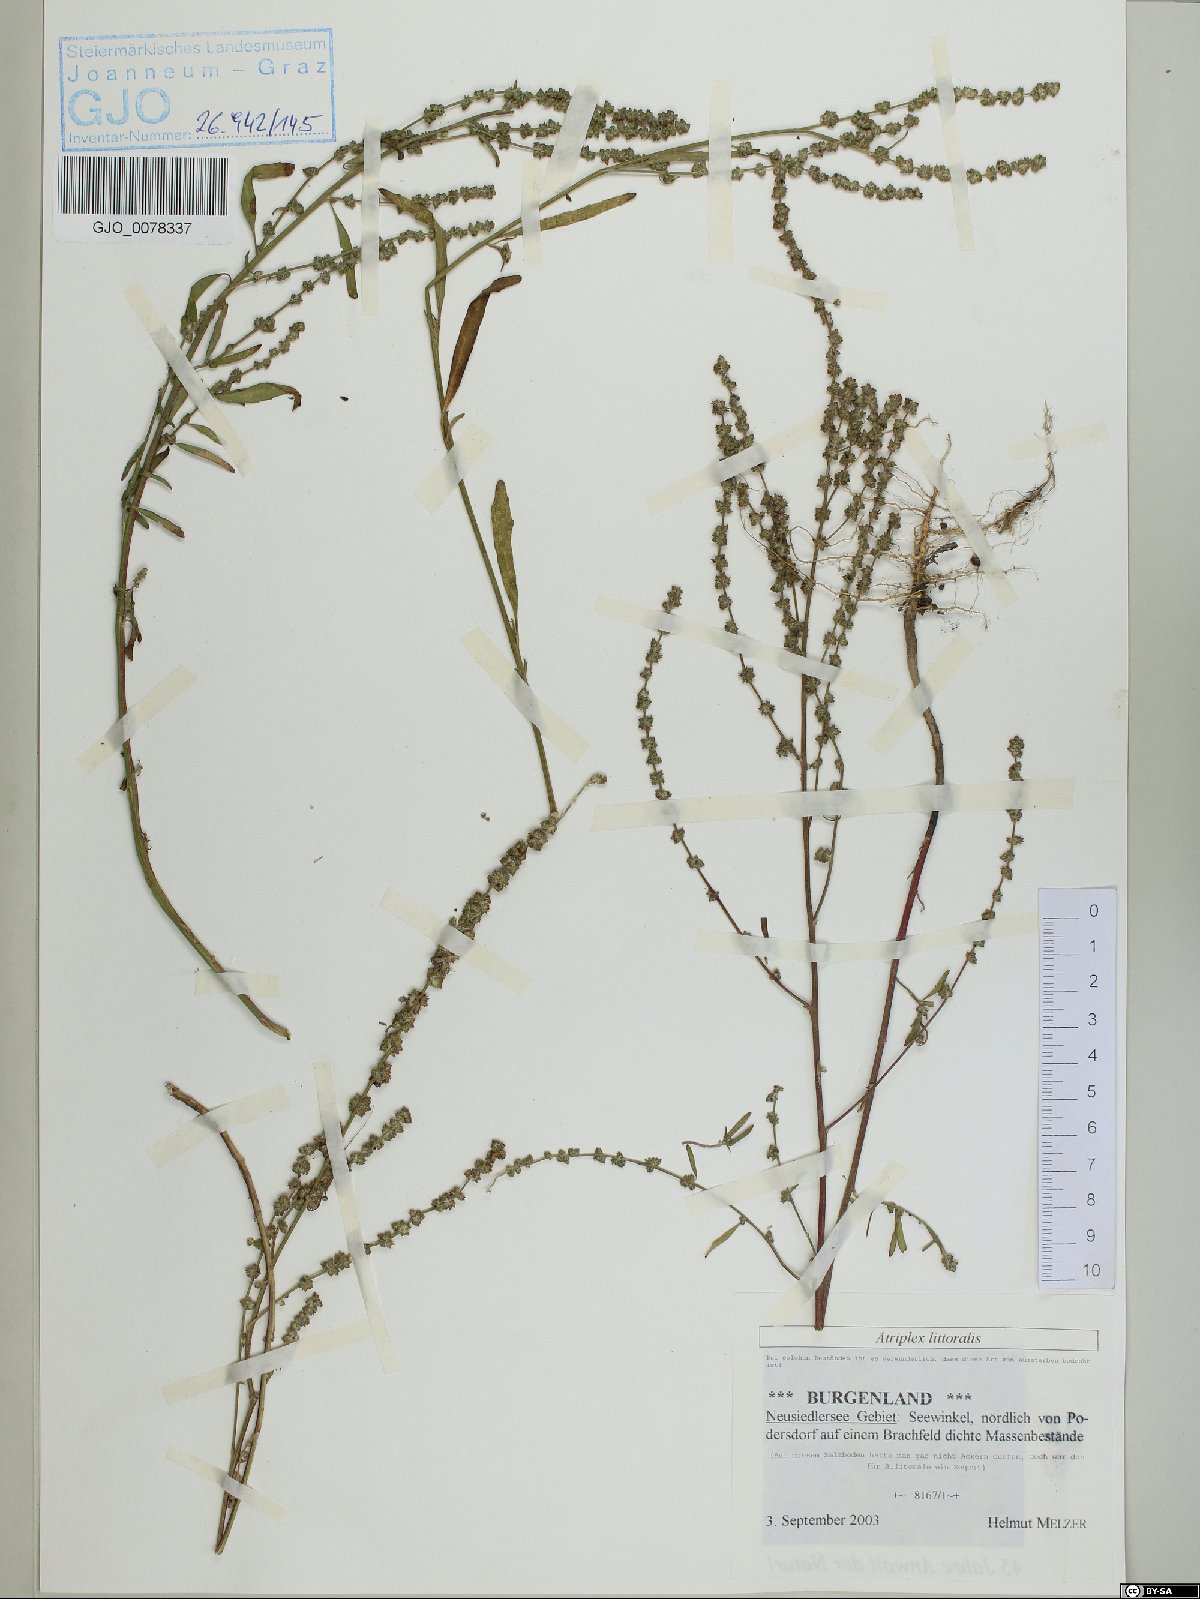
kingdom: Plantae
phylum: Tracheophyta
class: Magnoliopsida
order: Caryophyllales
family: Amaranthaceae
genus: Atriplex
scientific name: Atriplex littoralis
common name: Grass-leaved orache
